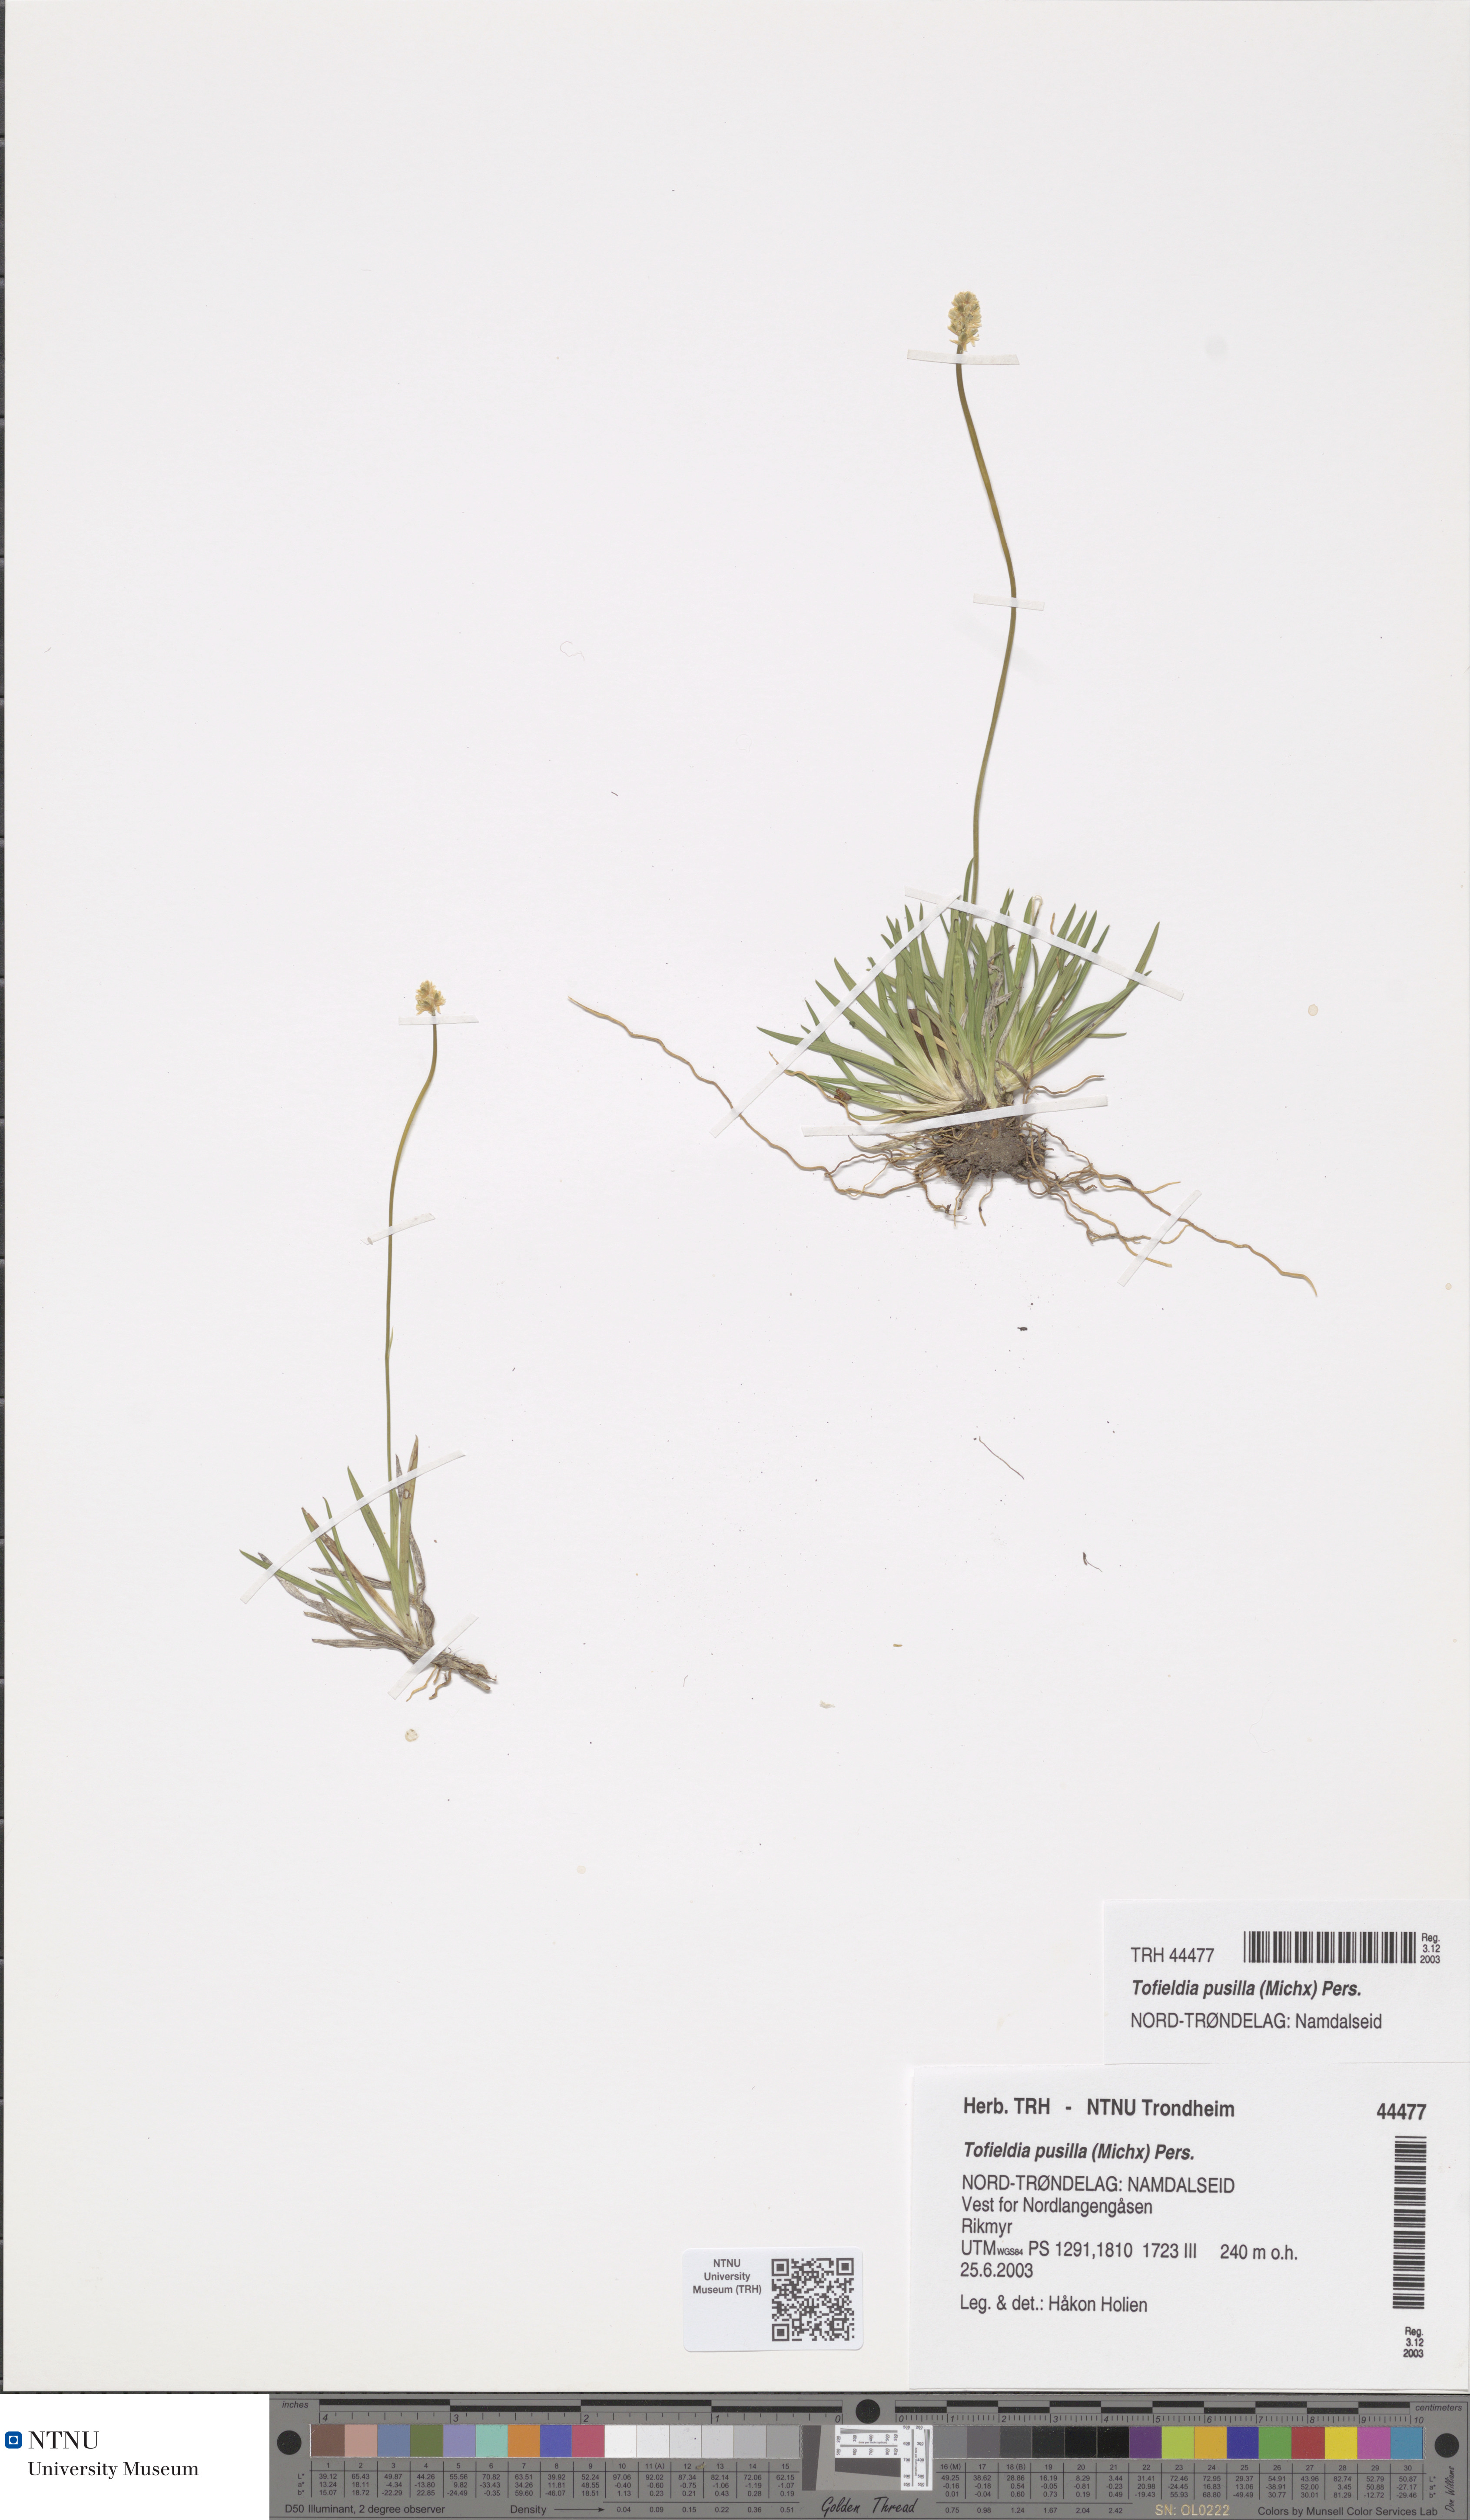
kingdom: Plantae
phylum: Tracheophyta
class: Liliopsida
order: Alismatales
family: Tofieldiaceae
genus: Tofieldia
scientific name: Tofieldia pusilla
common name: Scottish false asphodel
